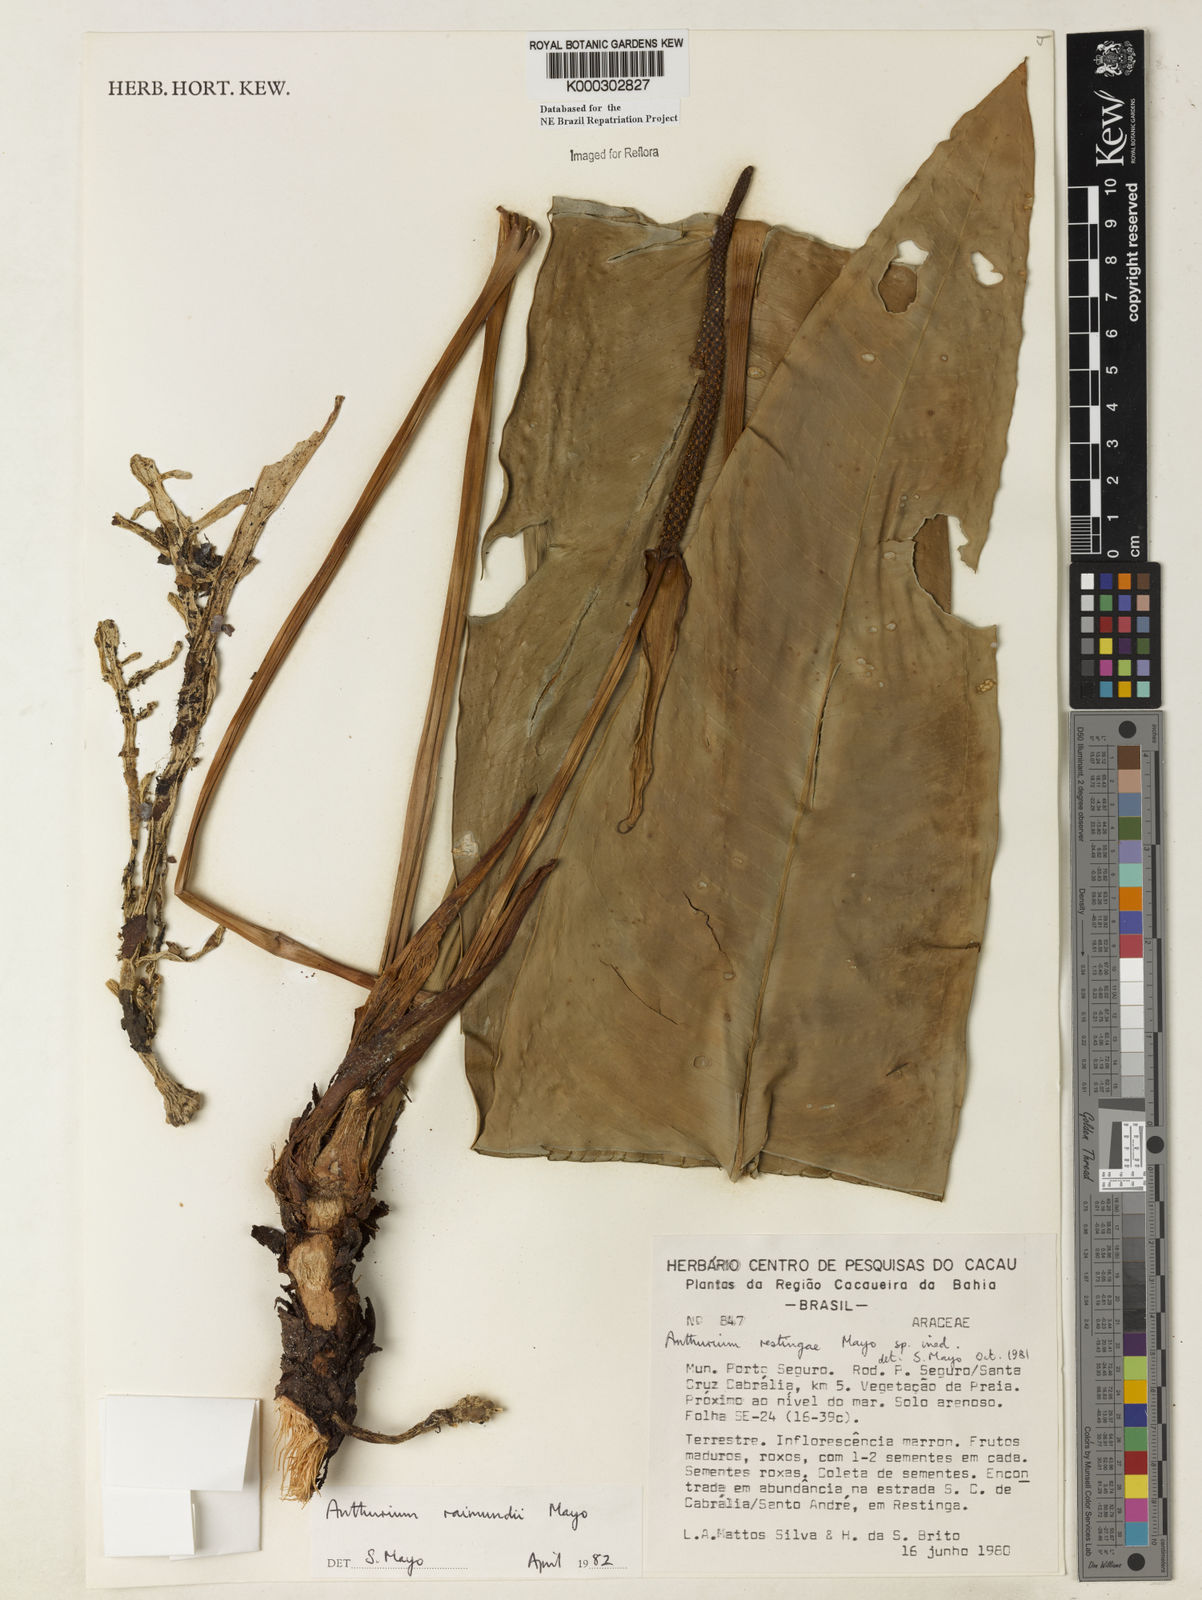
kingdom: Plantae
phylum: Tracheophyta
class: Liliopsida
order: Alismatales
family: Araceae
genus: Anthurium
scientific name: Anthurium raimundii
